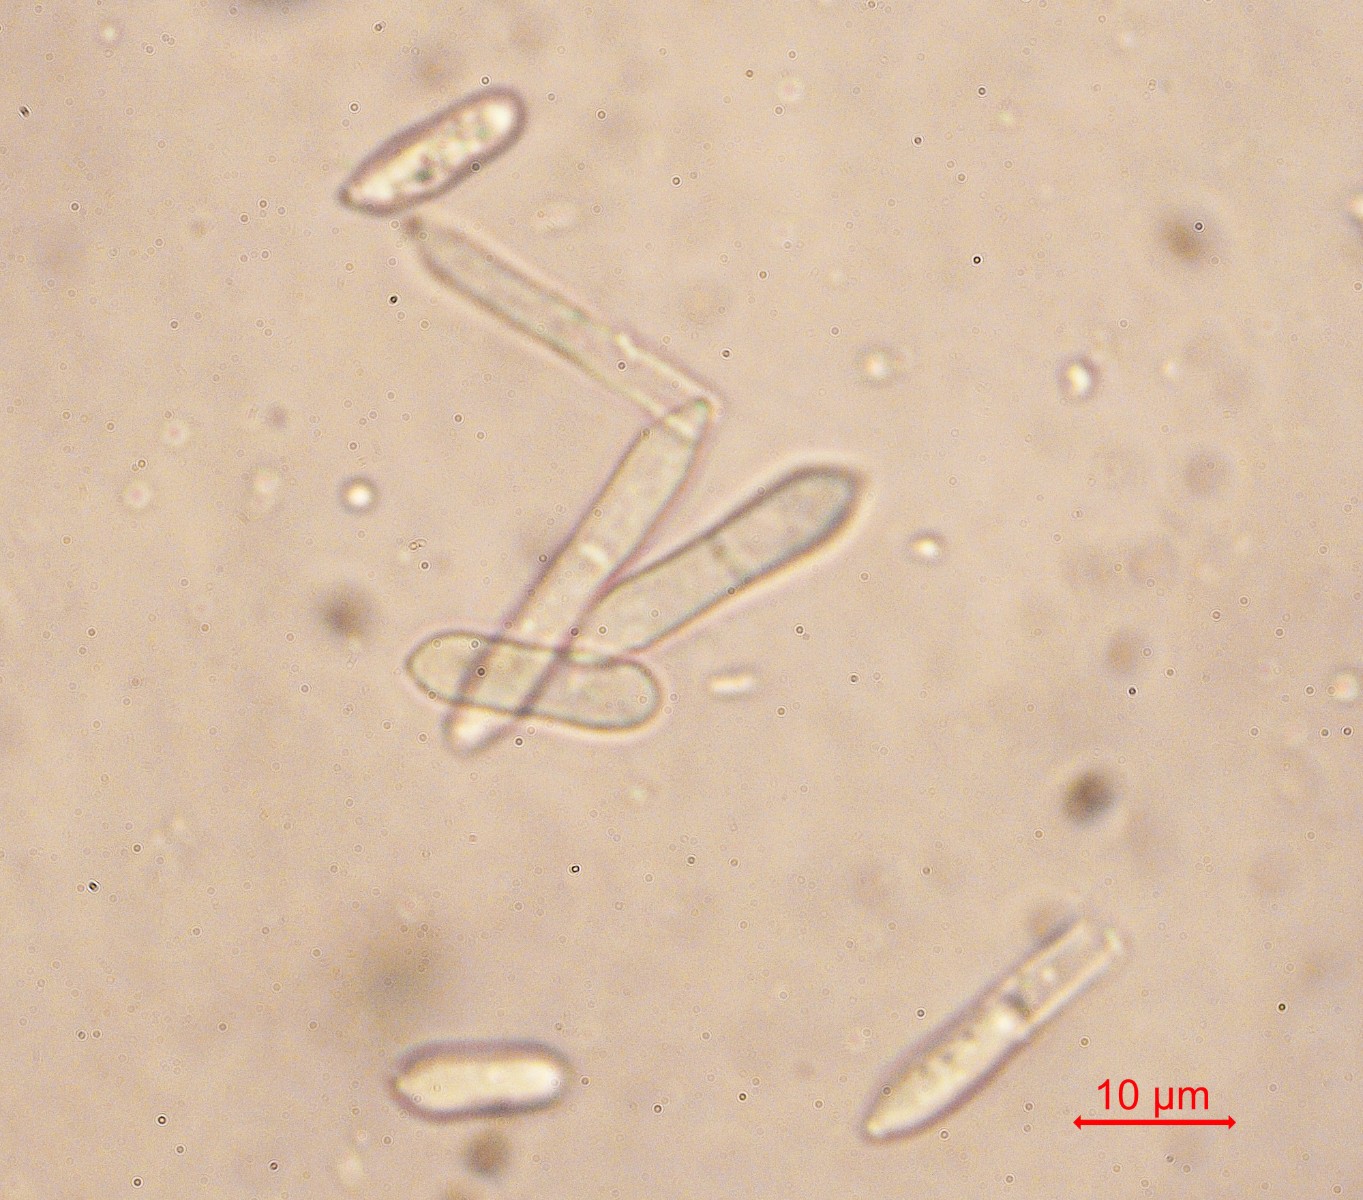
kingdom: Fungi
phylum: Ascomycota
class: Dothideomycetes
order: Mycosphaerellales
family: Mycosphaerellaceae
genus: Ramularia
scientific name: Ramularia geranii
